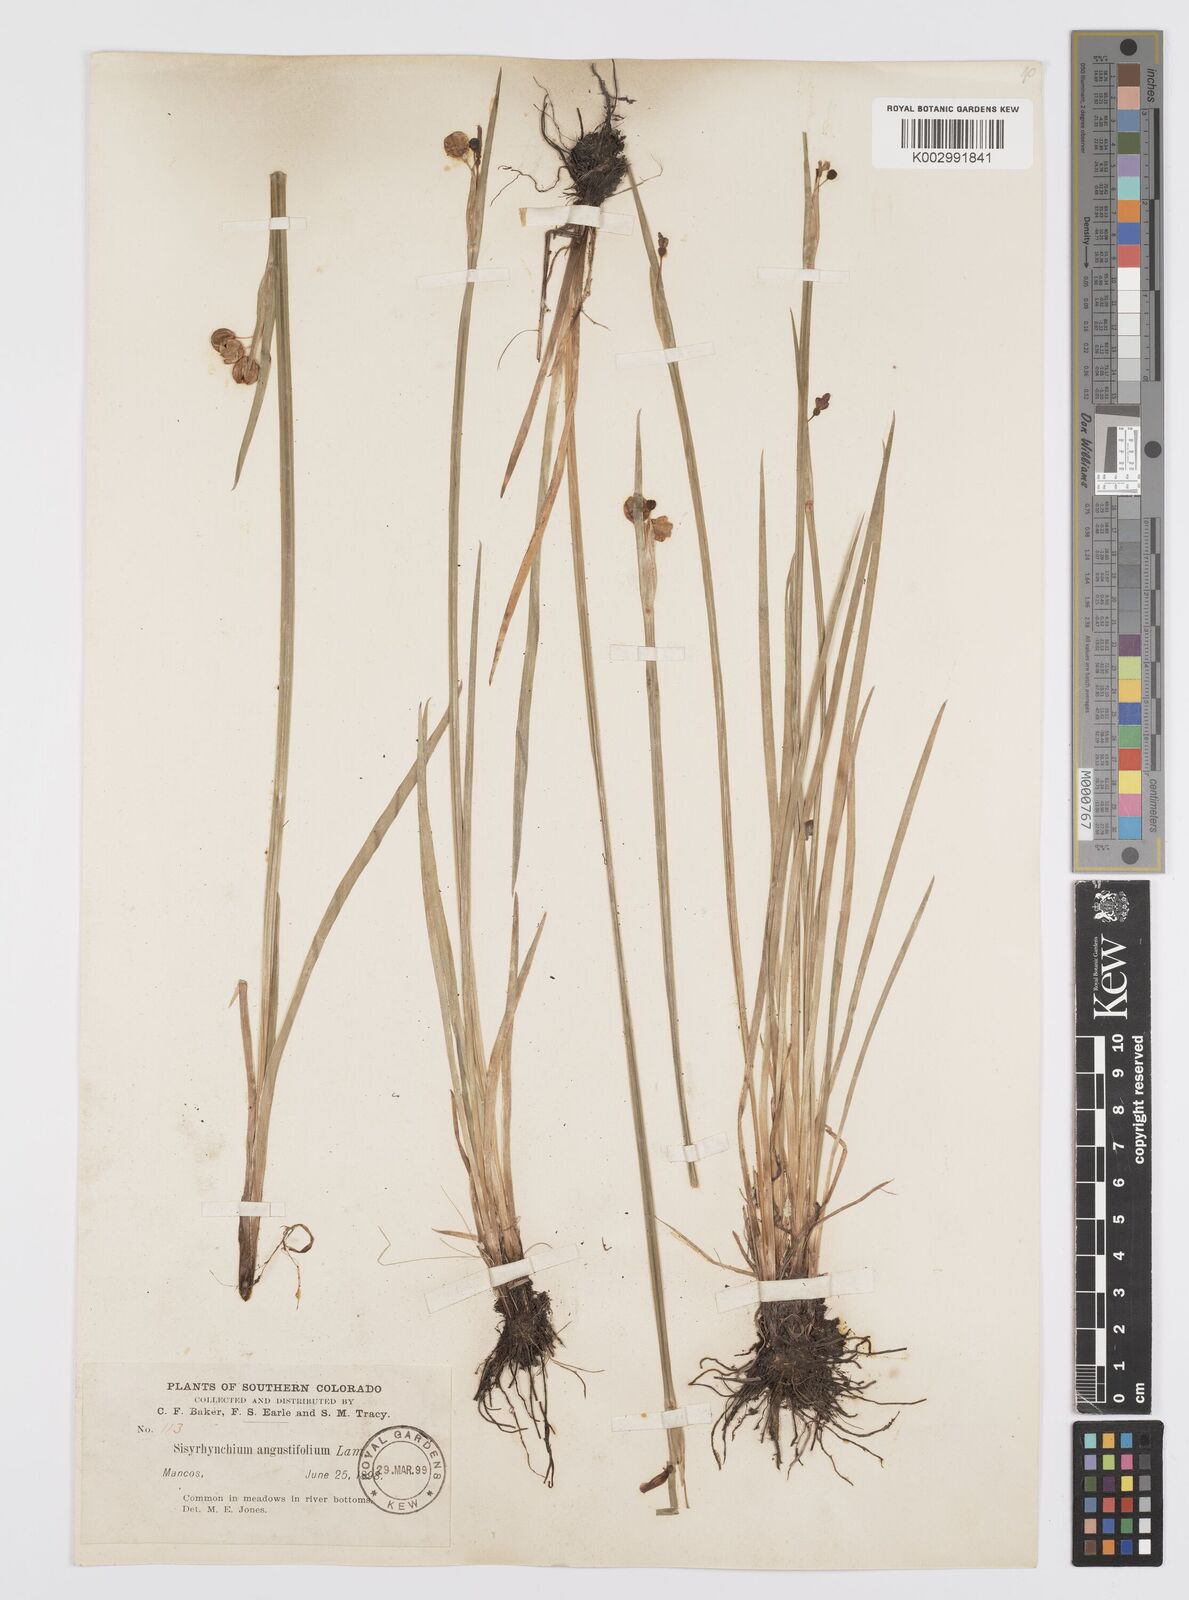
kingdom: Plantae
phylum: Tracheophyta
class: Liliopsida
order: Asparagales
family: Iridaceae
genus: Sisyrinchium
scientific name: Sisyrinchium bermudiana
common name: Blue-eyed-grass
